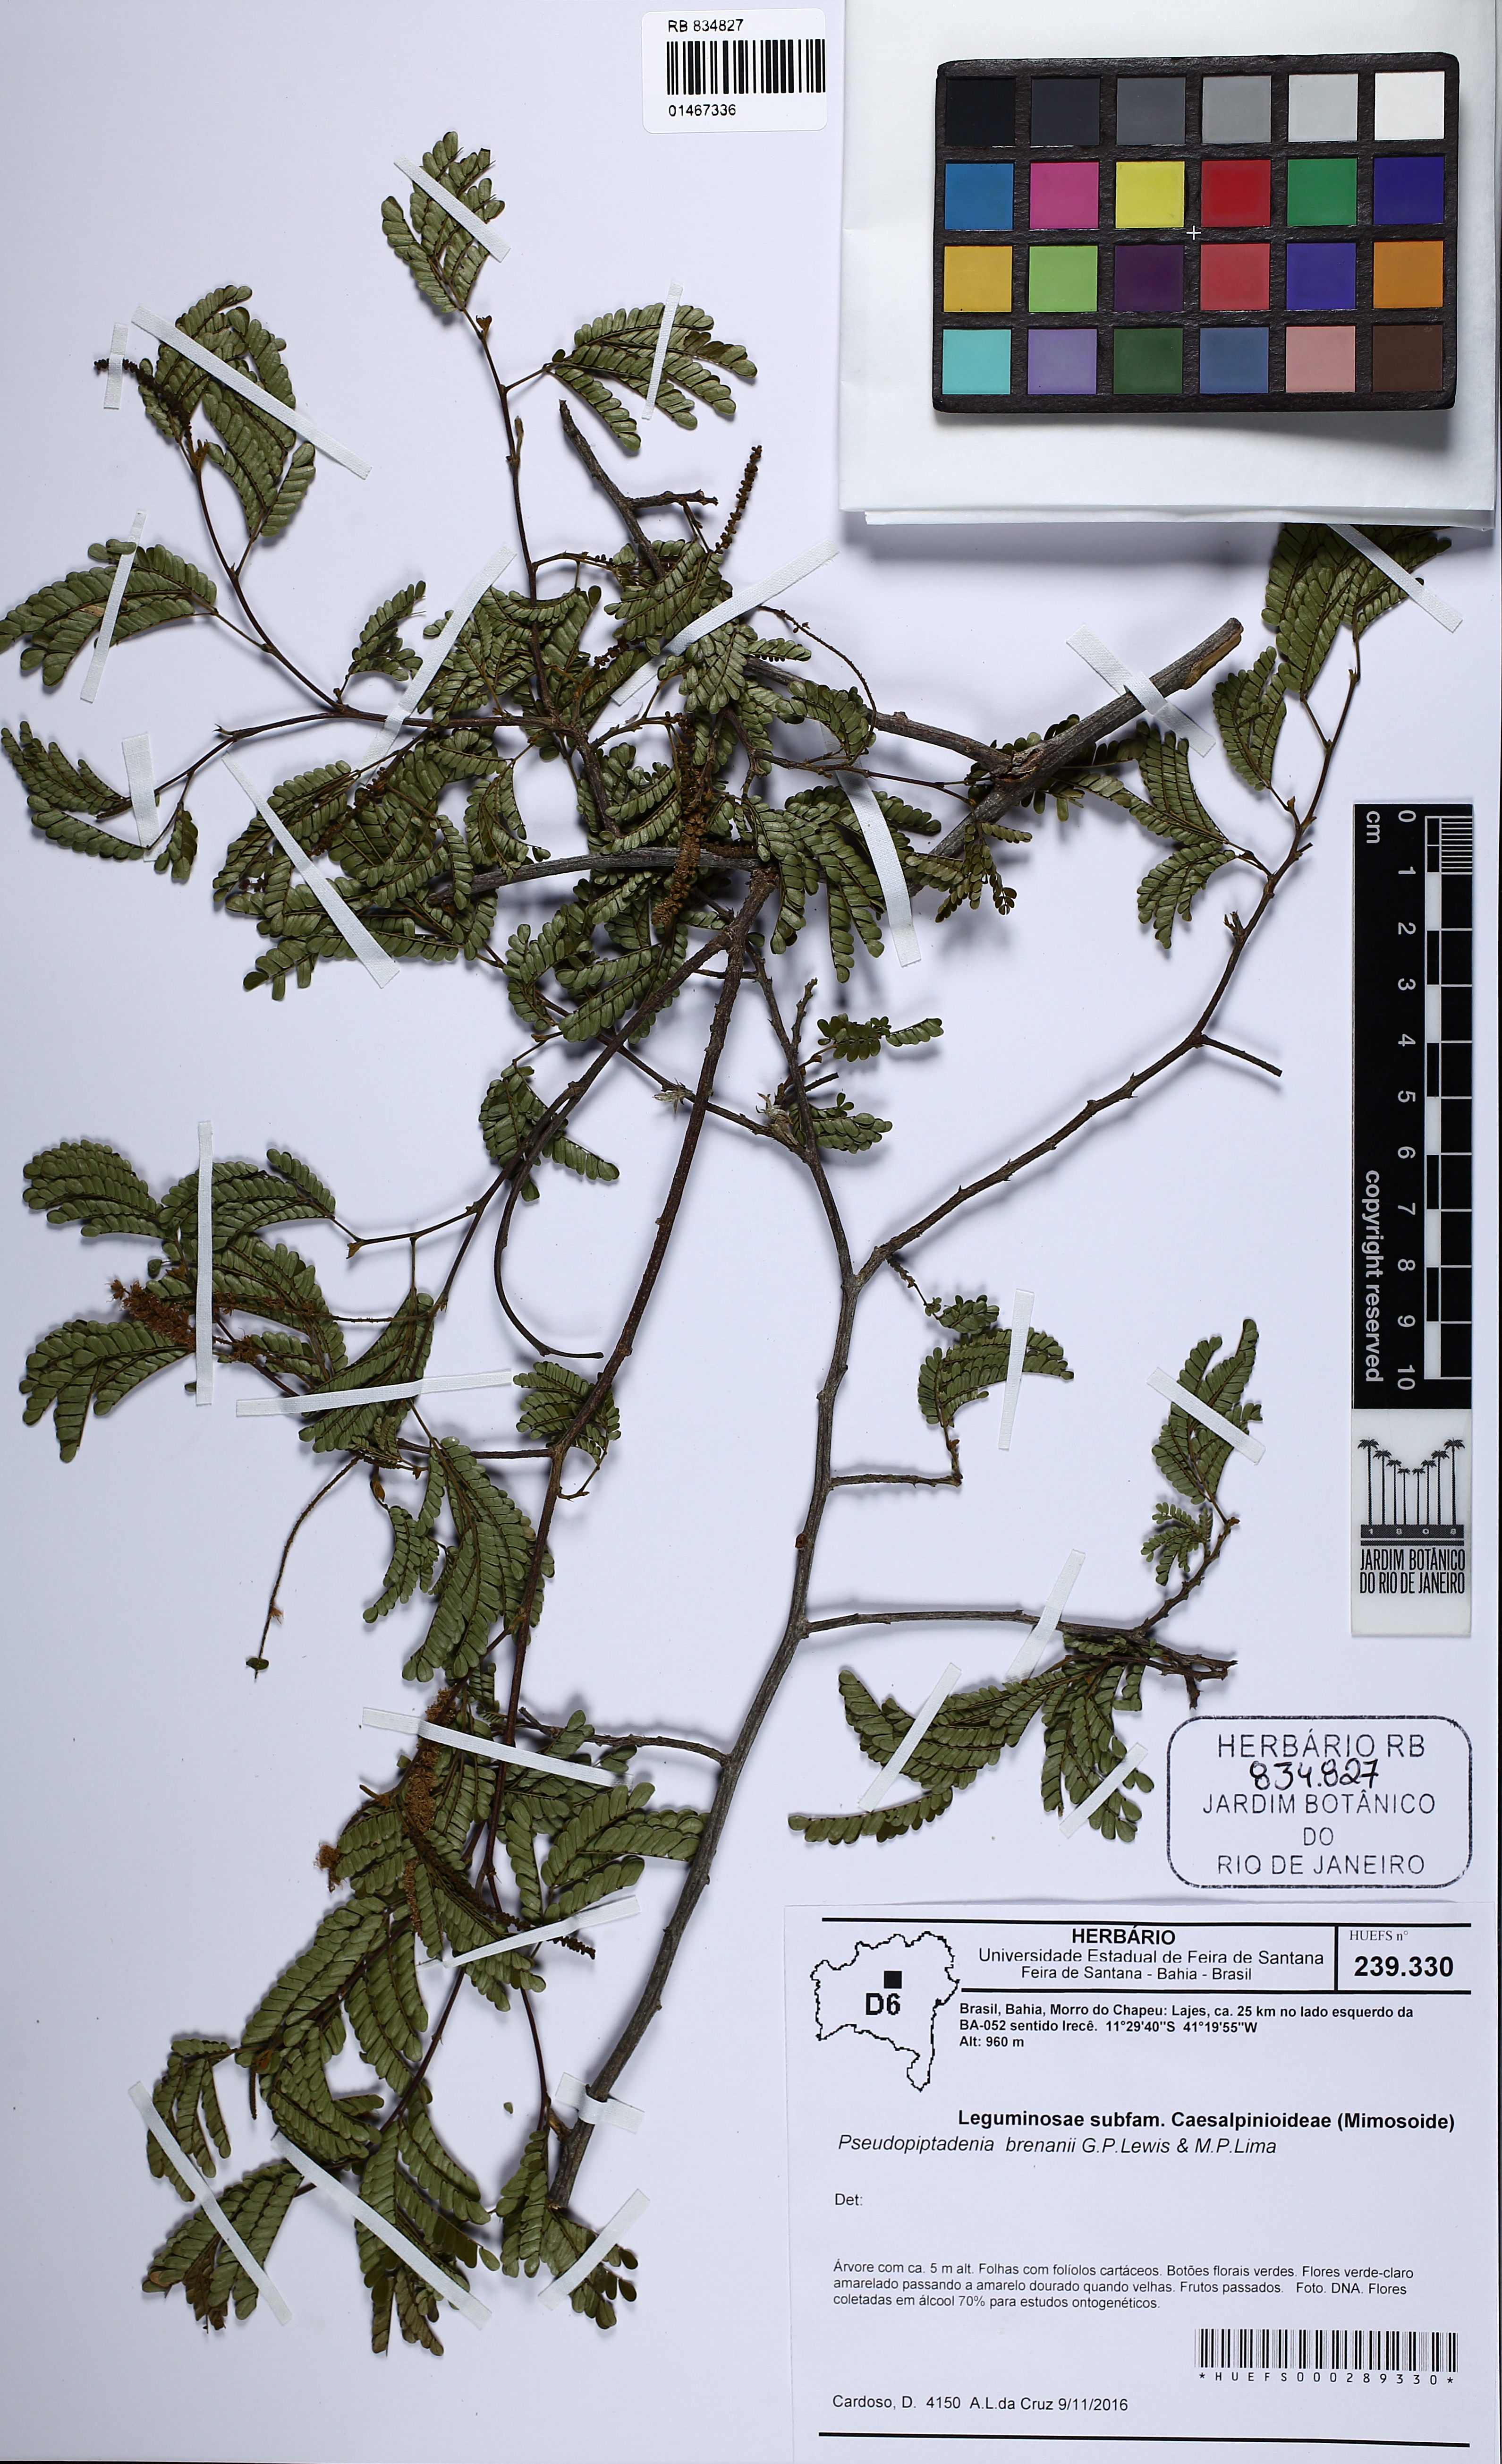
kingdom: Plantae
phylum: Tracheophyta
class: Magnoliopsida
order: Fabales
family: Fabaceae
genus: Pseudopiptadenia
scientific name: Pseudopiptadenia brenanii
